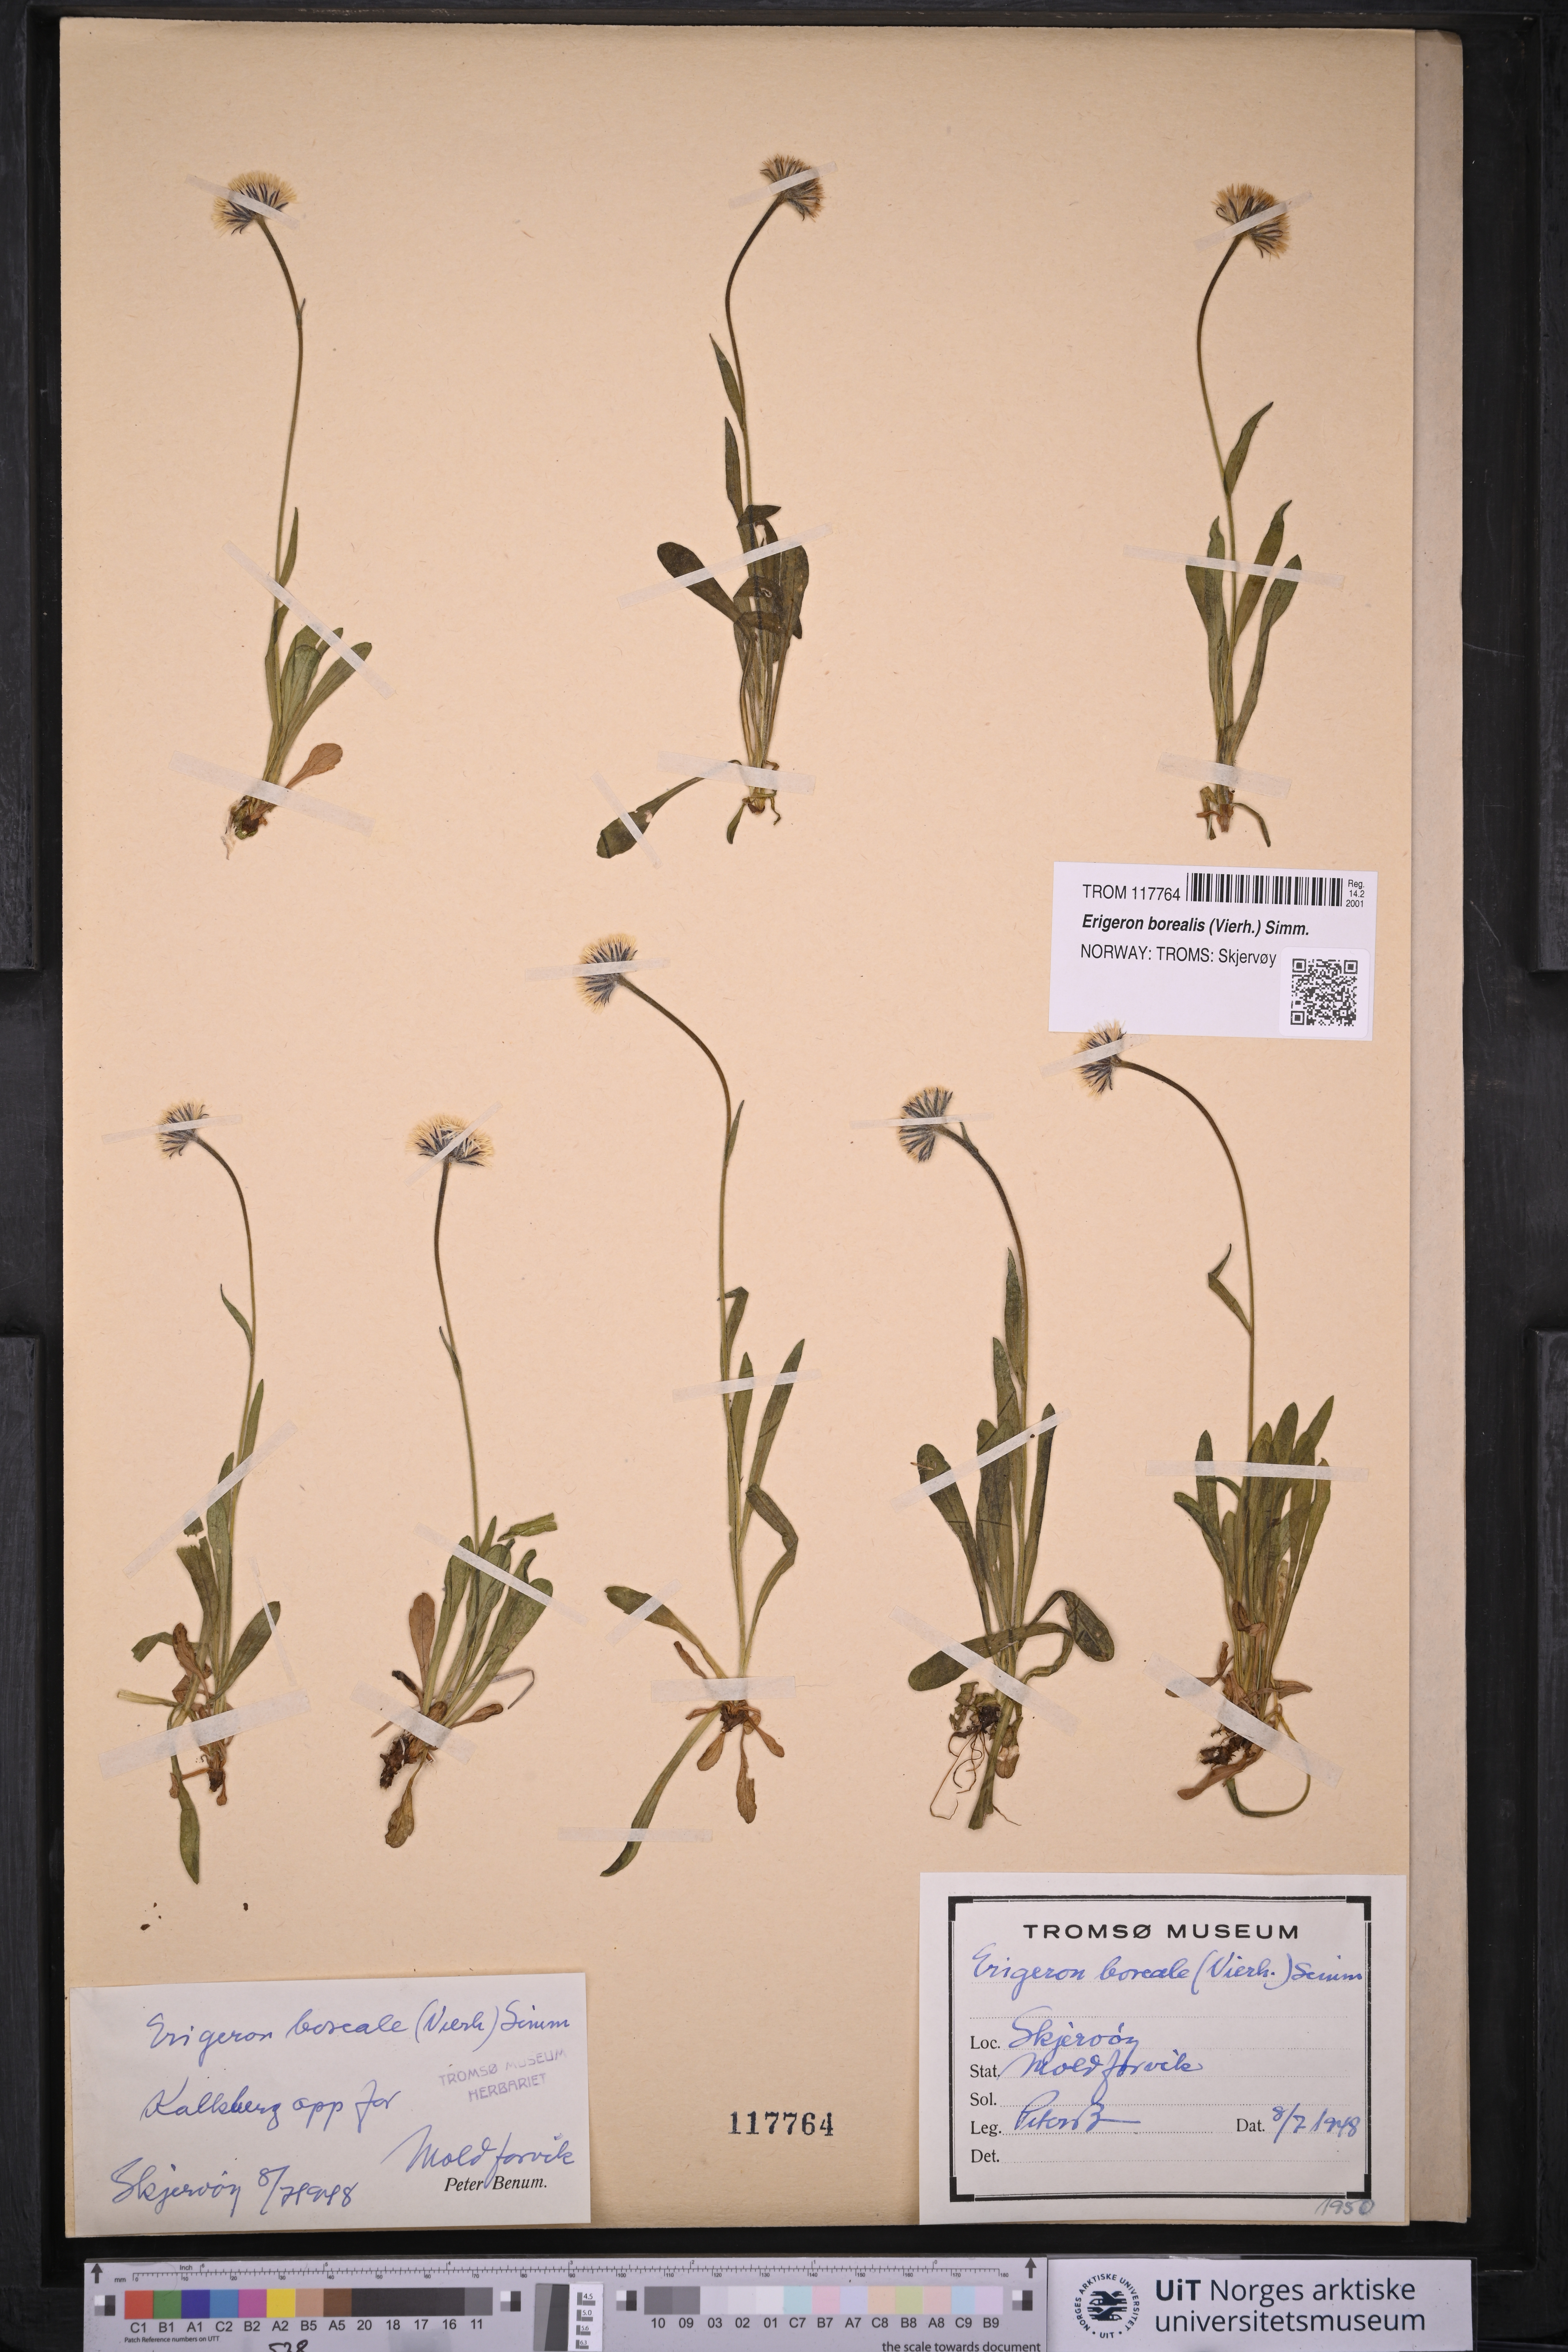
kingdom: Plantae
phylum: Tracheophyta
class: Magnoliopsida
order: Asterales
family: Asteraceae
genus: Erigeron
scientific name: Erigeron borealis
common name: Alpine fleabane
